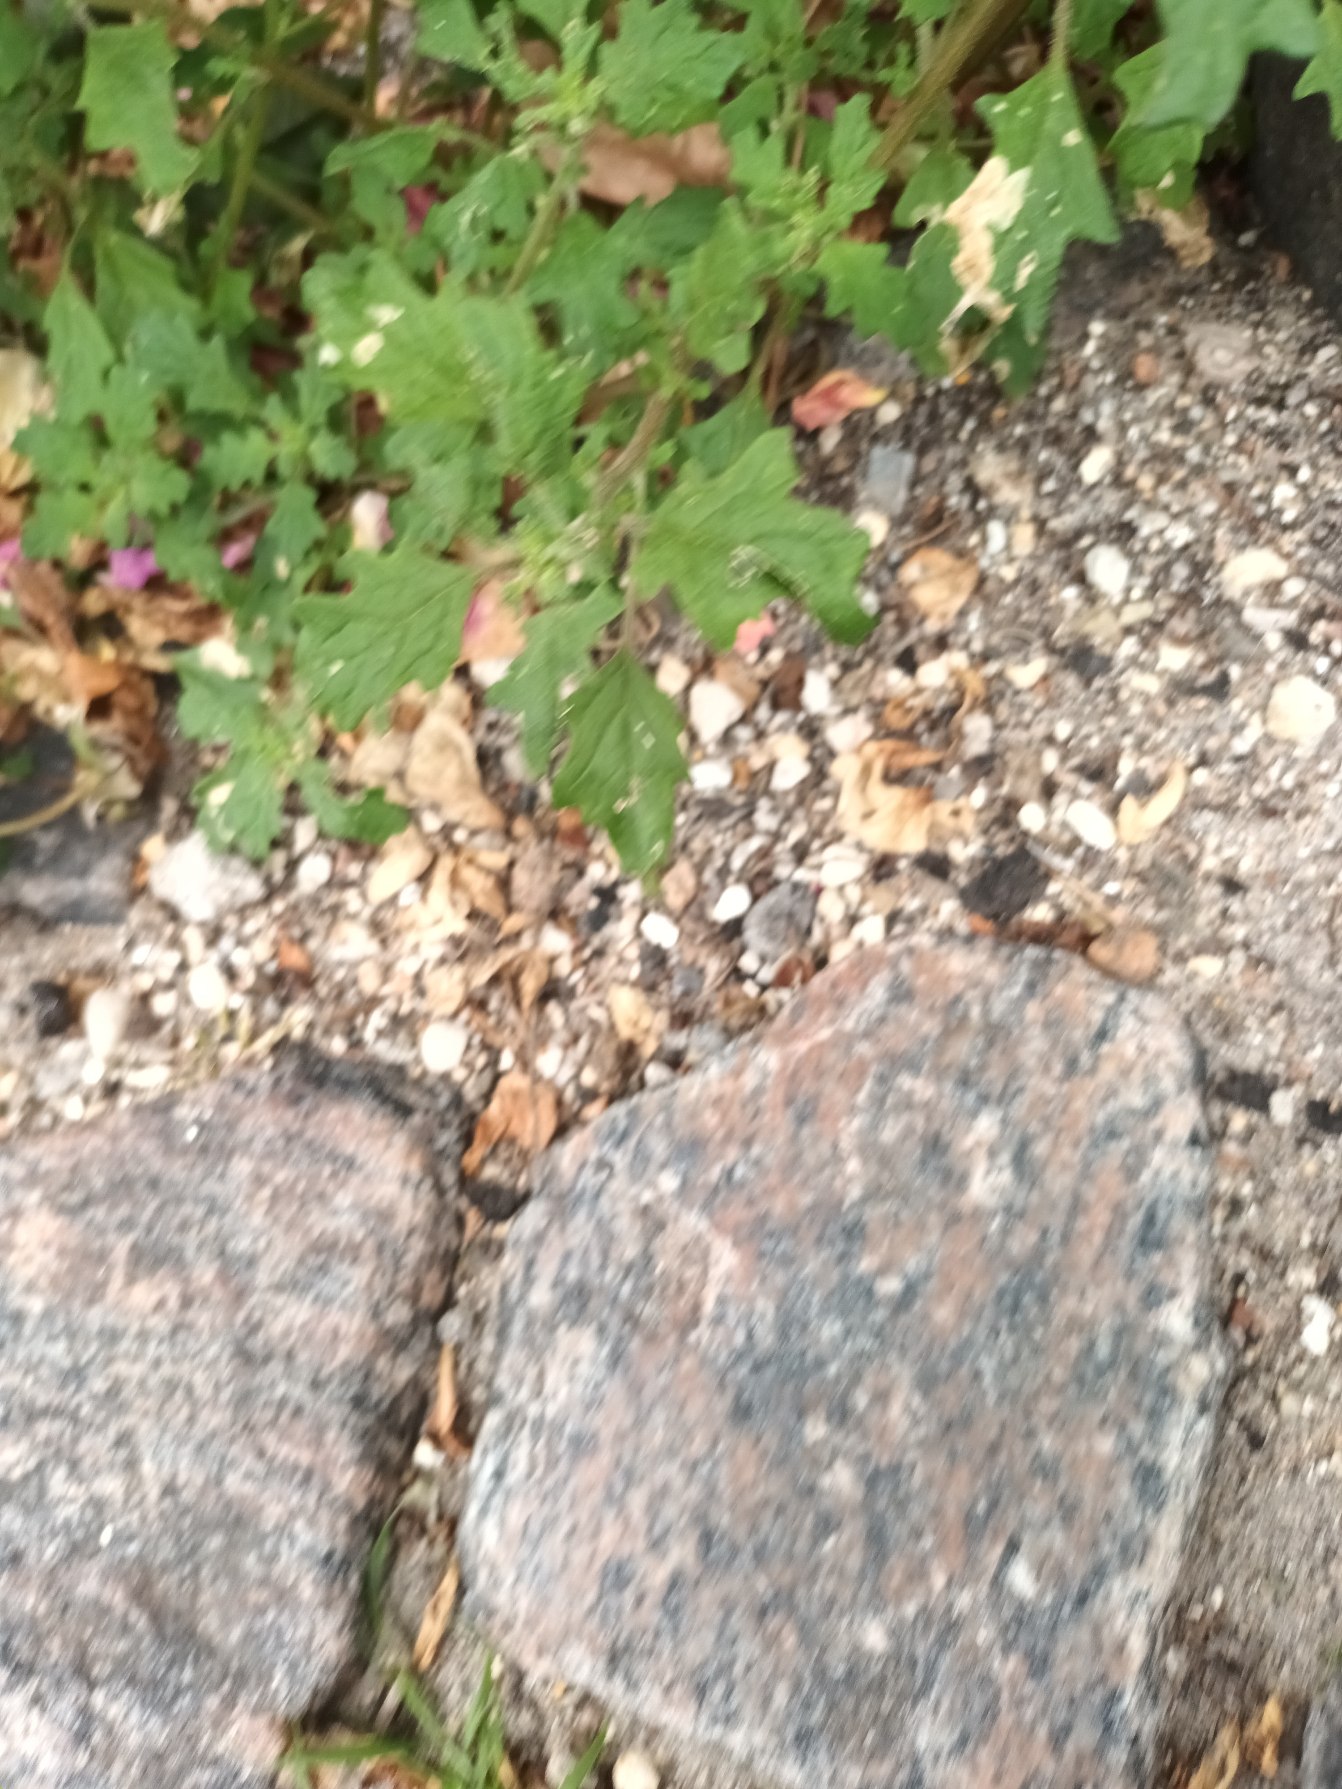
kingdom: Plantae
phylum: Tracheophyta
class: Magnoliopsida
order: Caryophyllales
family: Amaranthaceae
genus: Dysphania
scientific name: Dysphania pumilio
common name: Dværg-gåsefod
